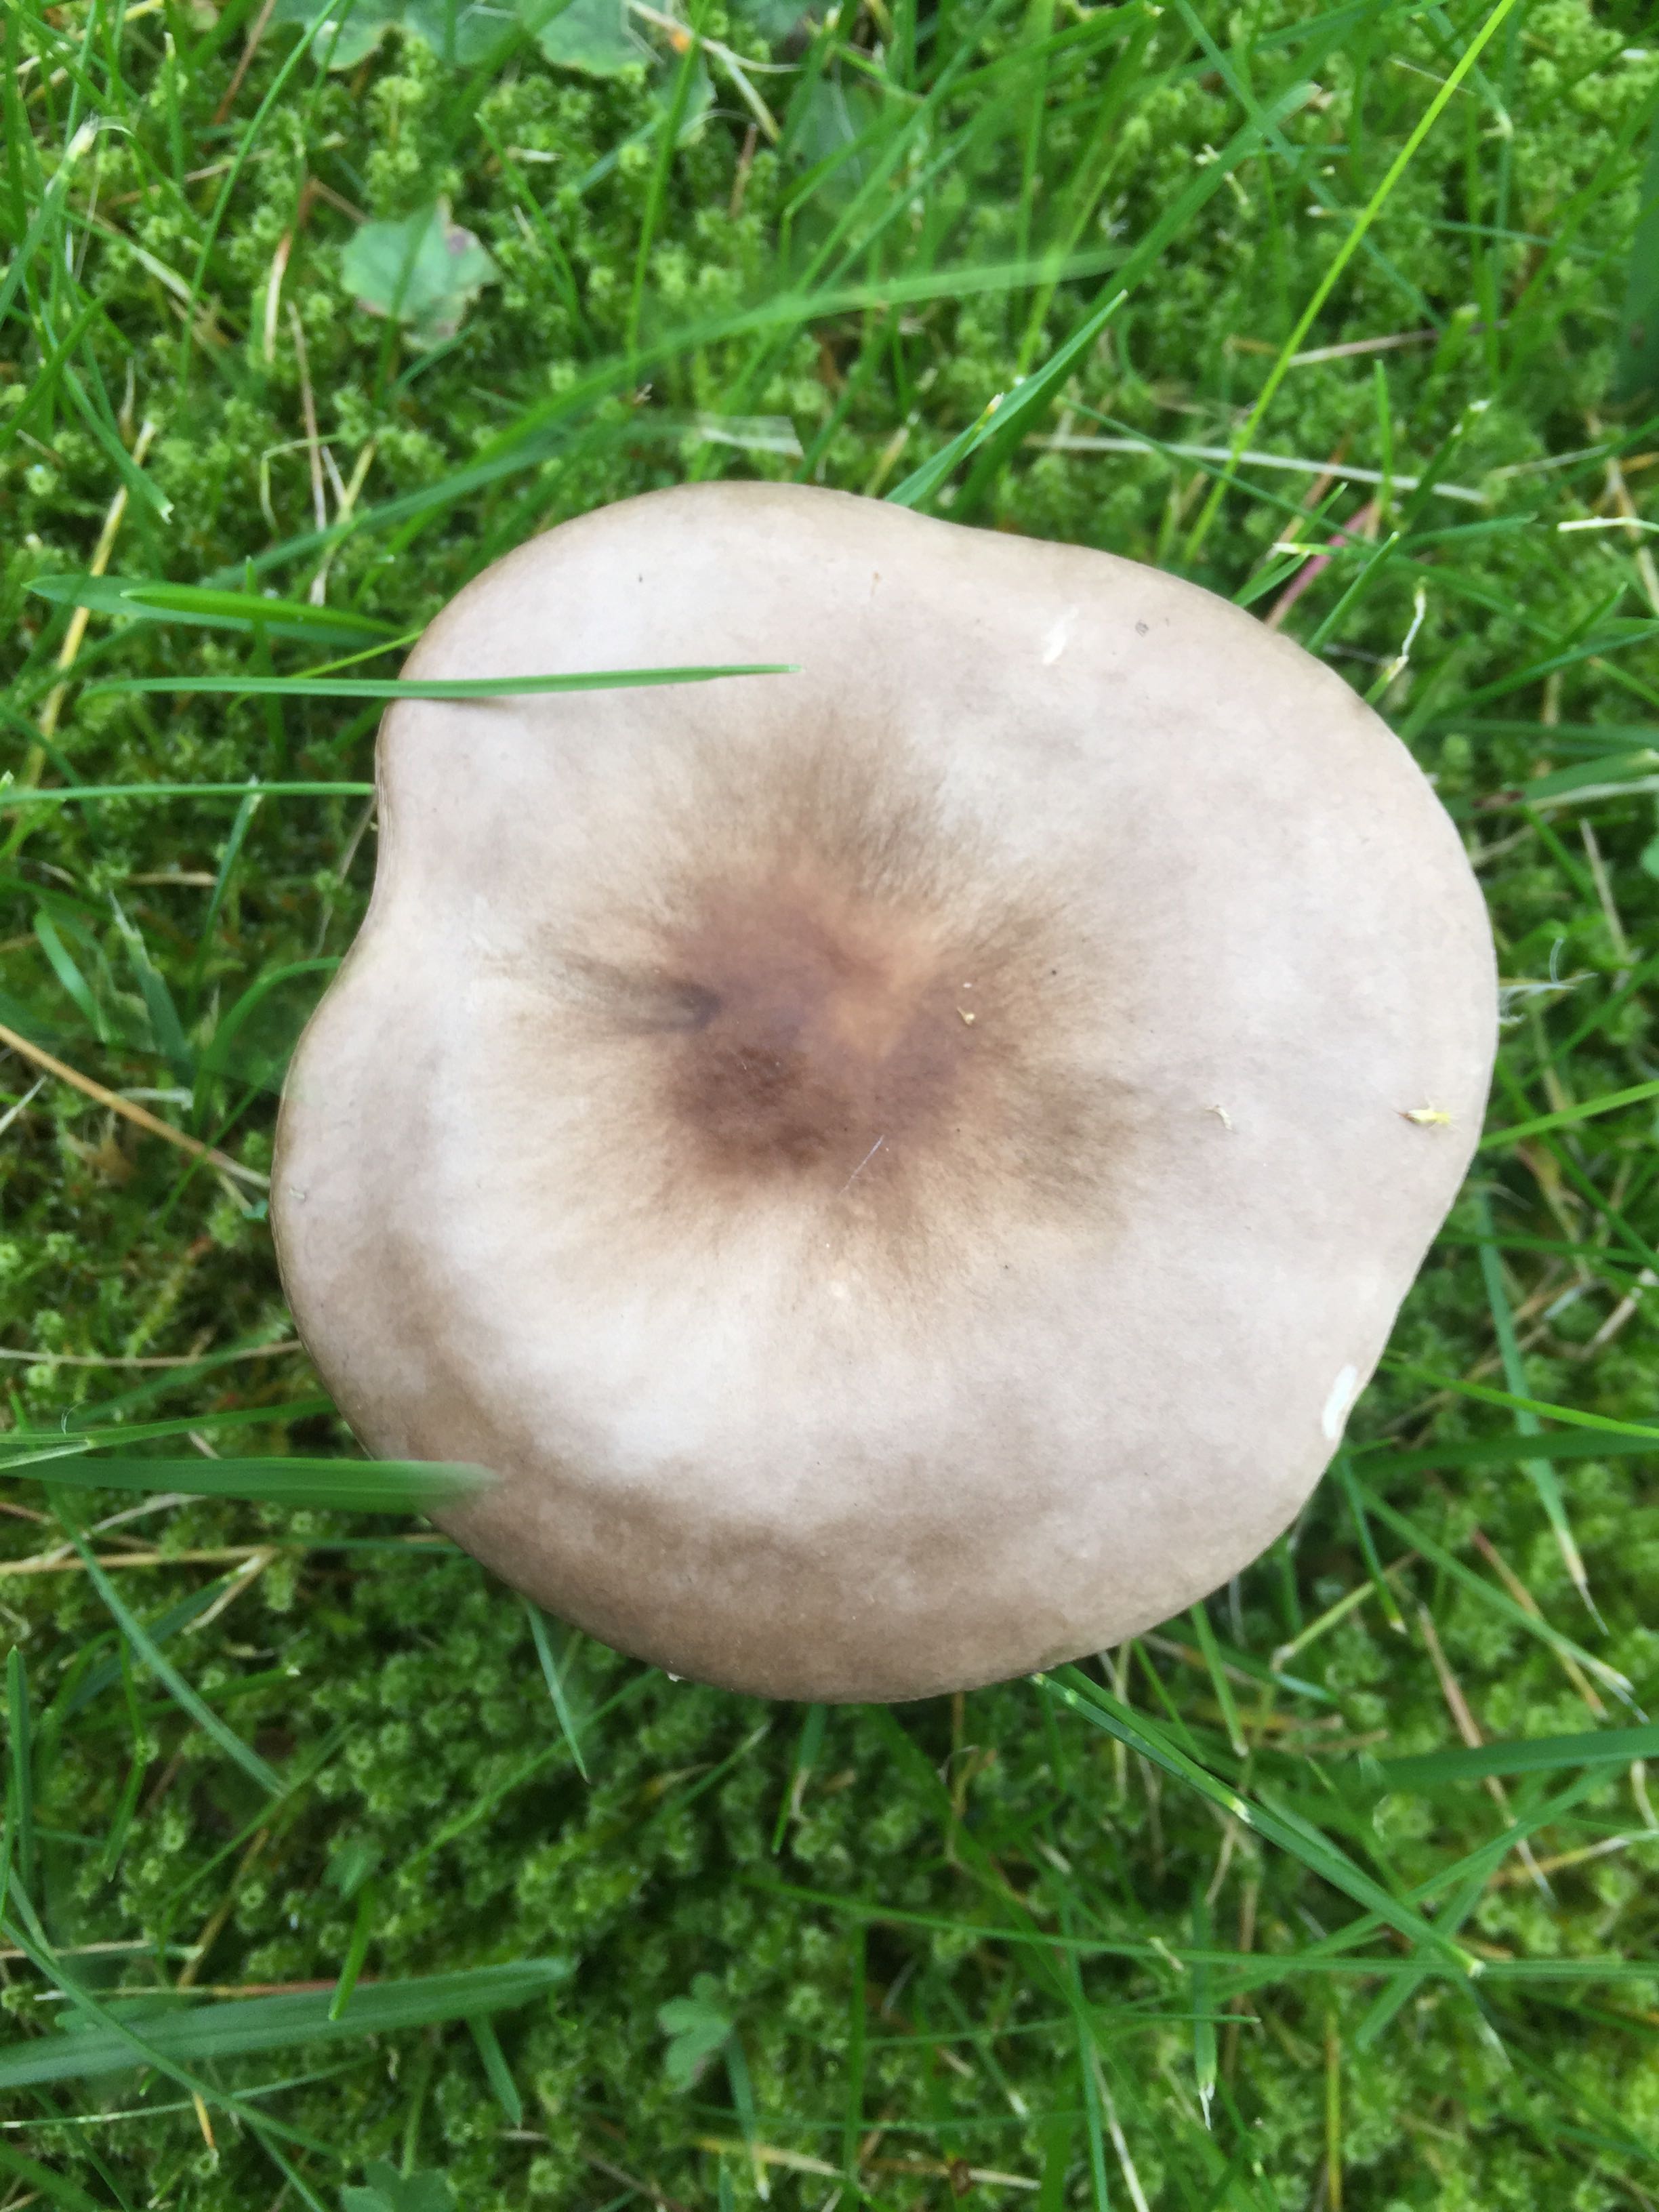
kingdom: Fungi
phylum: Basidiomycota
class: Agaricomycetes
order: Agaricales
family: Tricholomataceae
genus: Melanoleuca
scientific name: Melanoleuca
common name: munkehat
